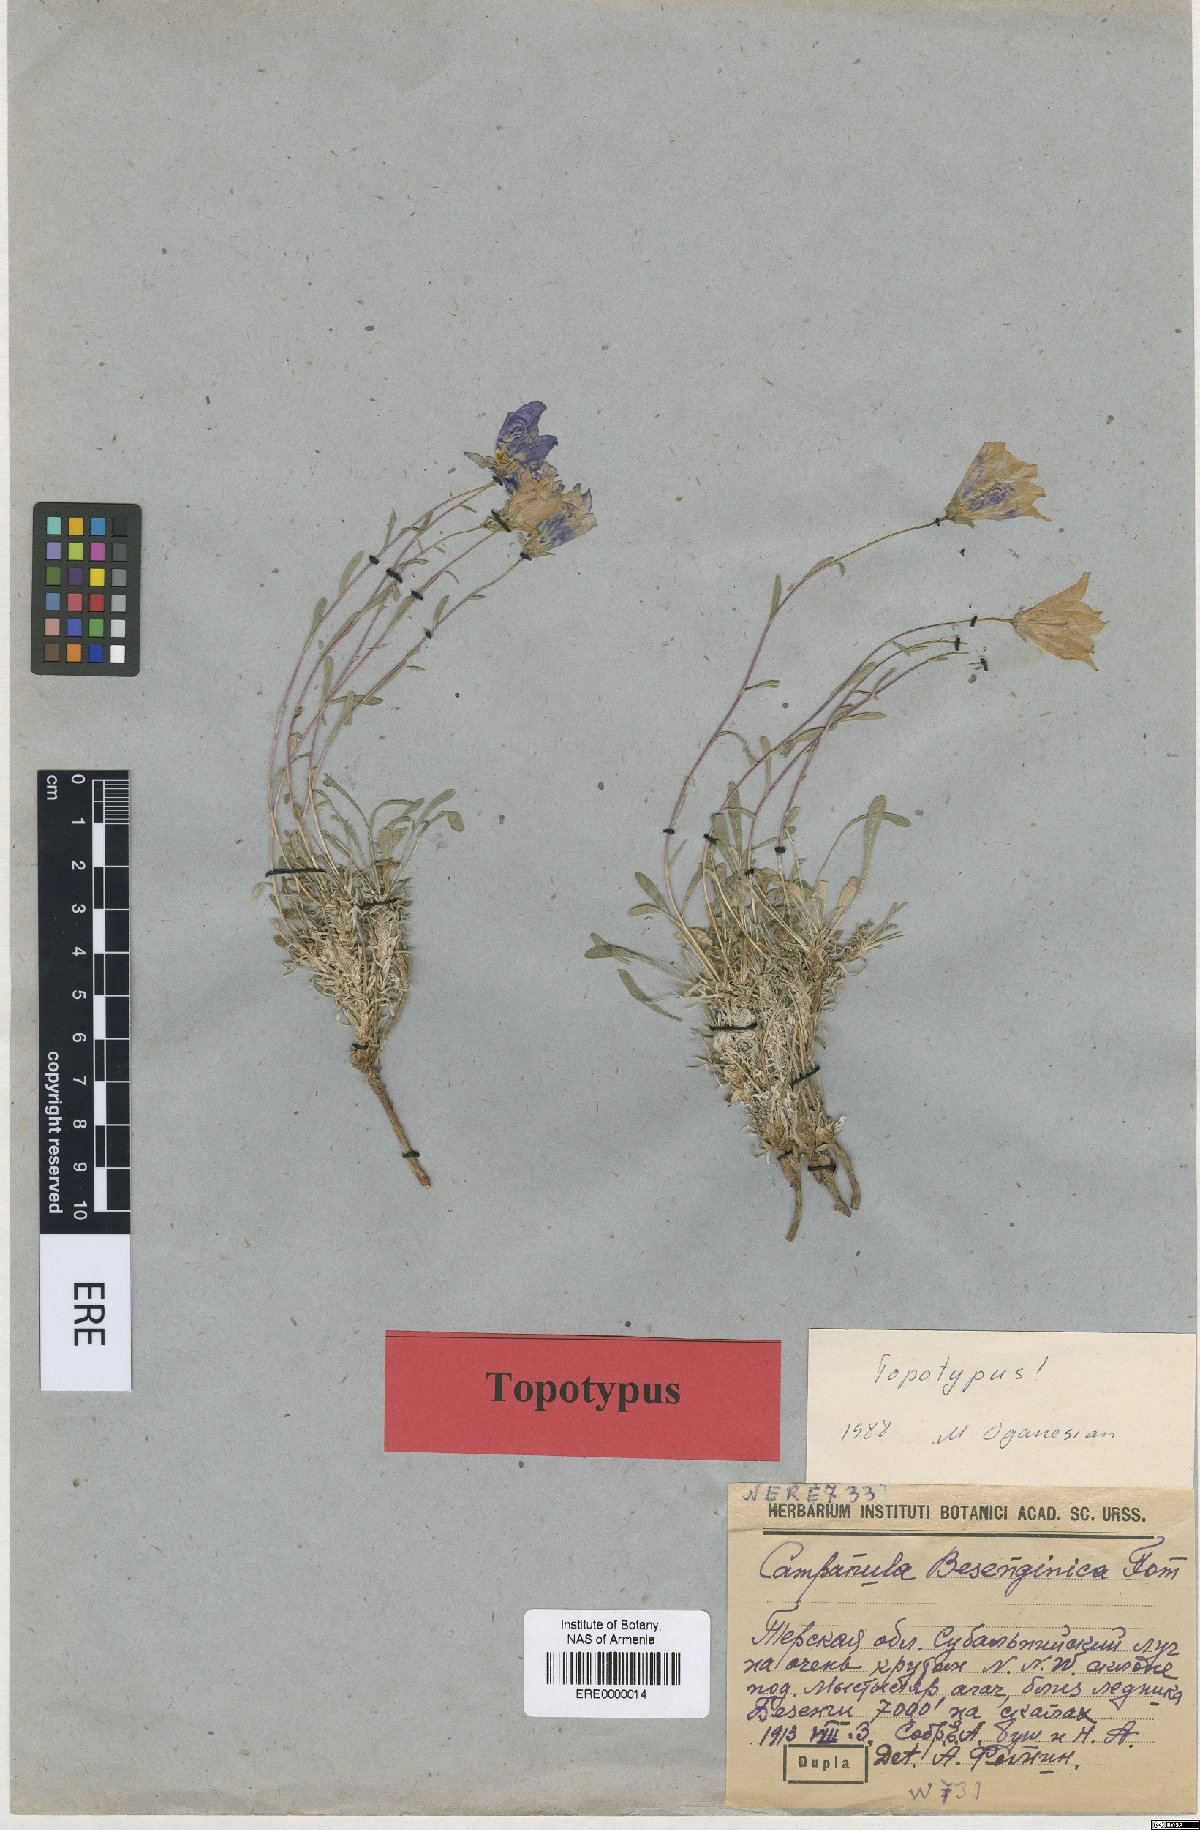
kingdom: Plantae
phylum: Tracheophyta
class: Magnoliopsida
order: Asterales
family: Campanulaceae
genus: Campanula
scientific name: Campanula bellidifolia
